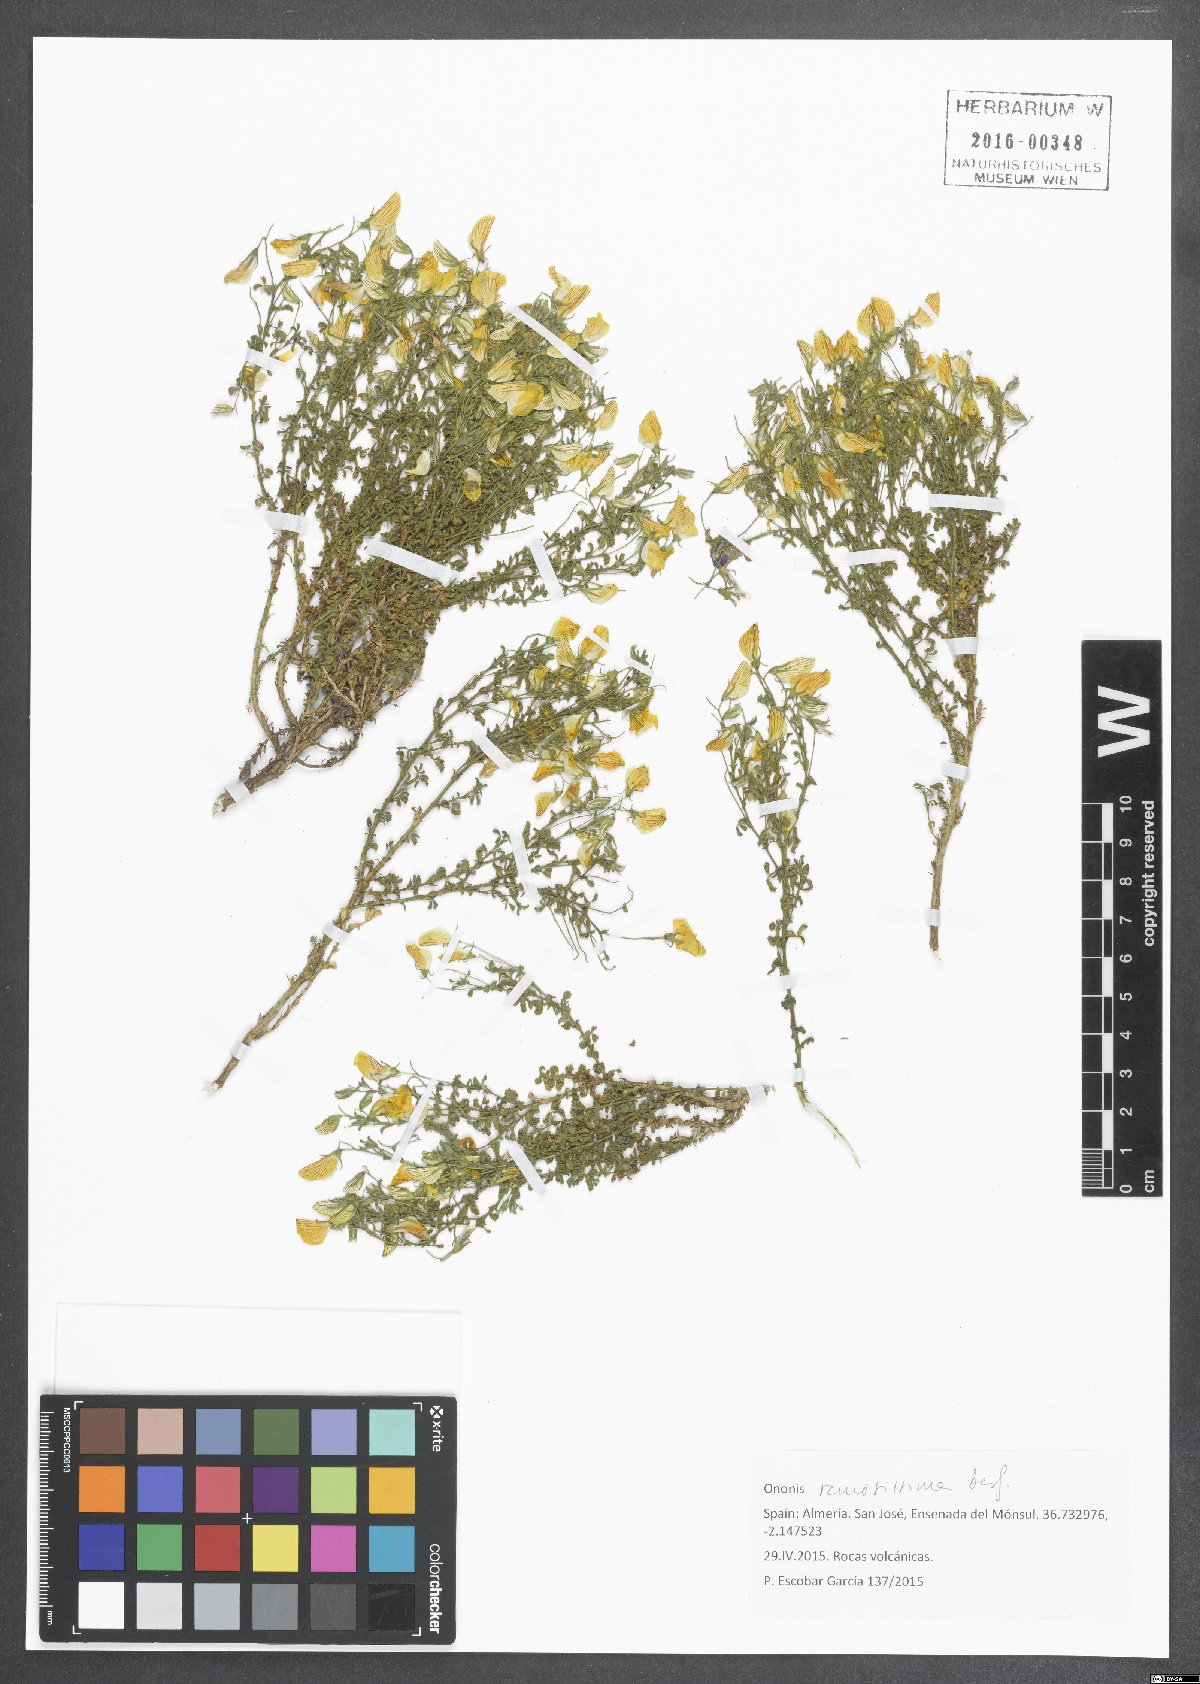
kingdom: Plantae
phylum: Tracheophyta
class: Magnoliopsida
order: Fabales
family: Fabaceae
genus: Ononis
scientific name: Ononis ramosissima
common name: Bush restharrow
